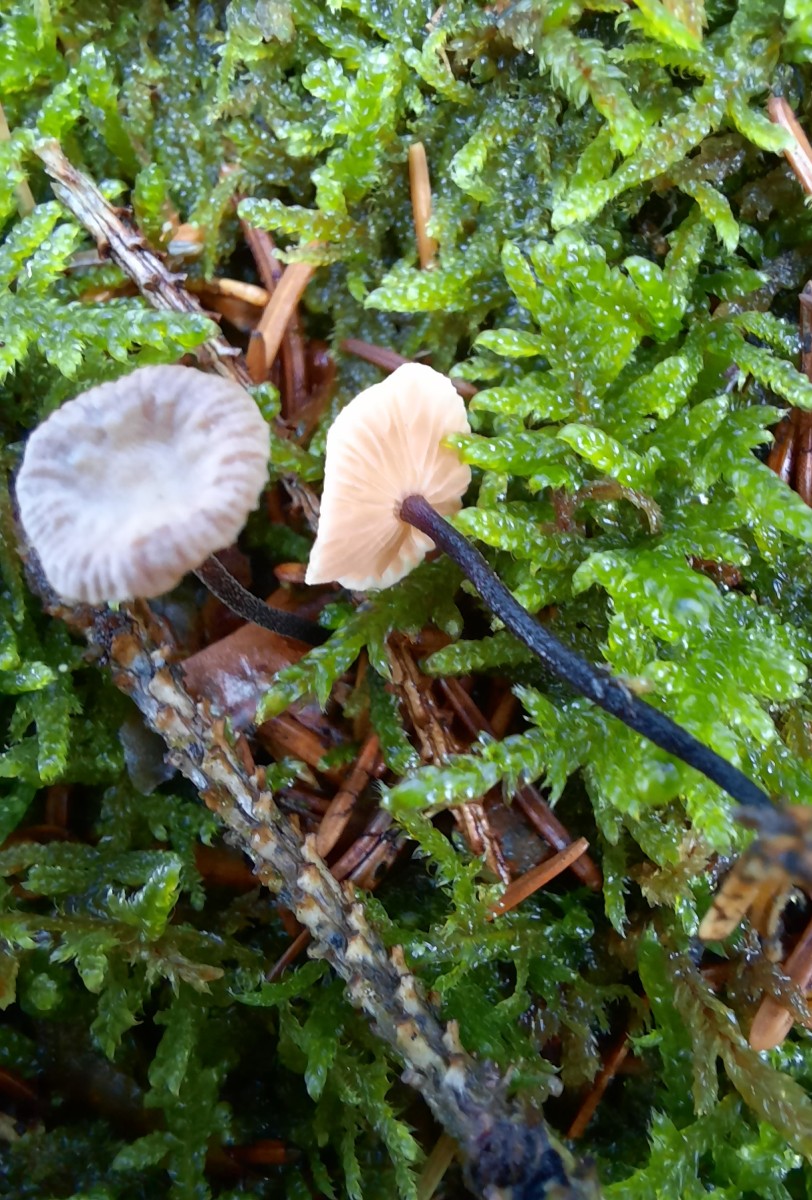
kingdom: Fungi
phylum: Basidiomycota
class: Agaricomycetes
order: Agaricales
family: Omphalotaceae
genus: Paragymnopus
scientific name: Paragymnopus perforans
